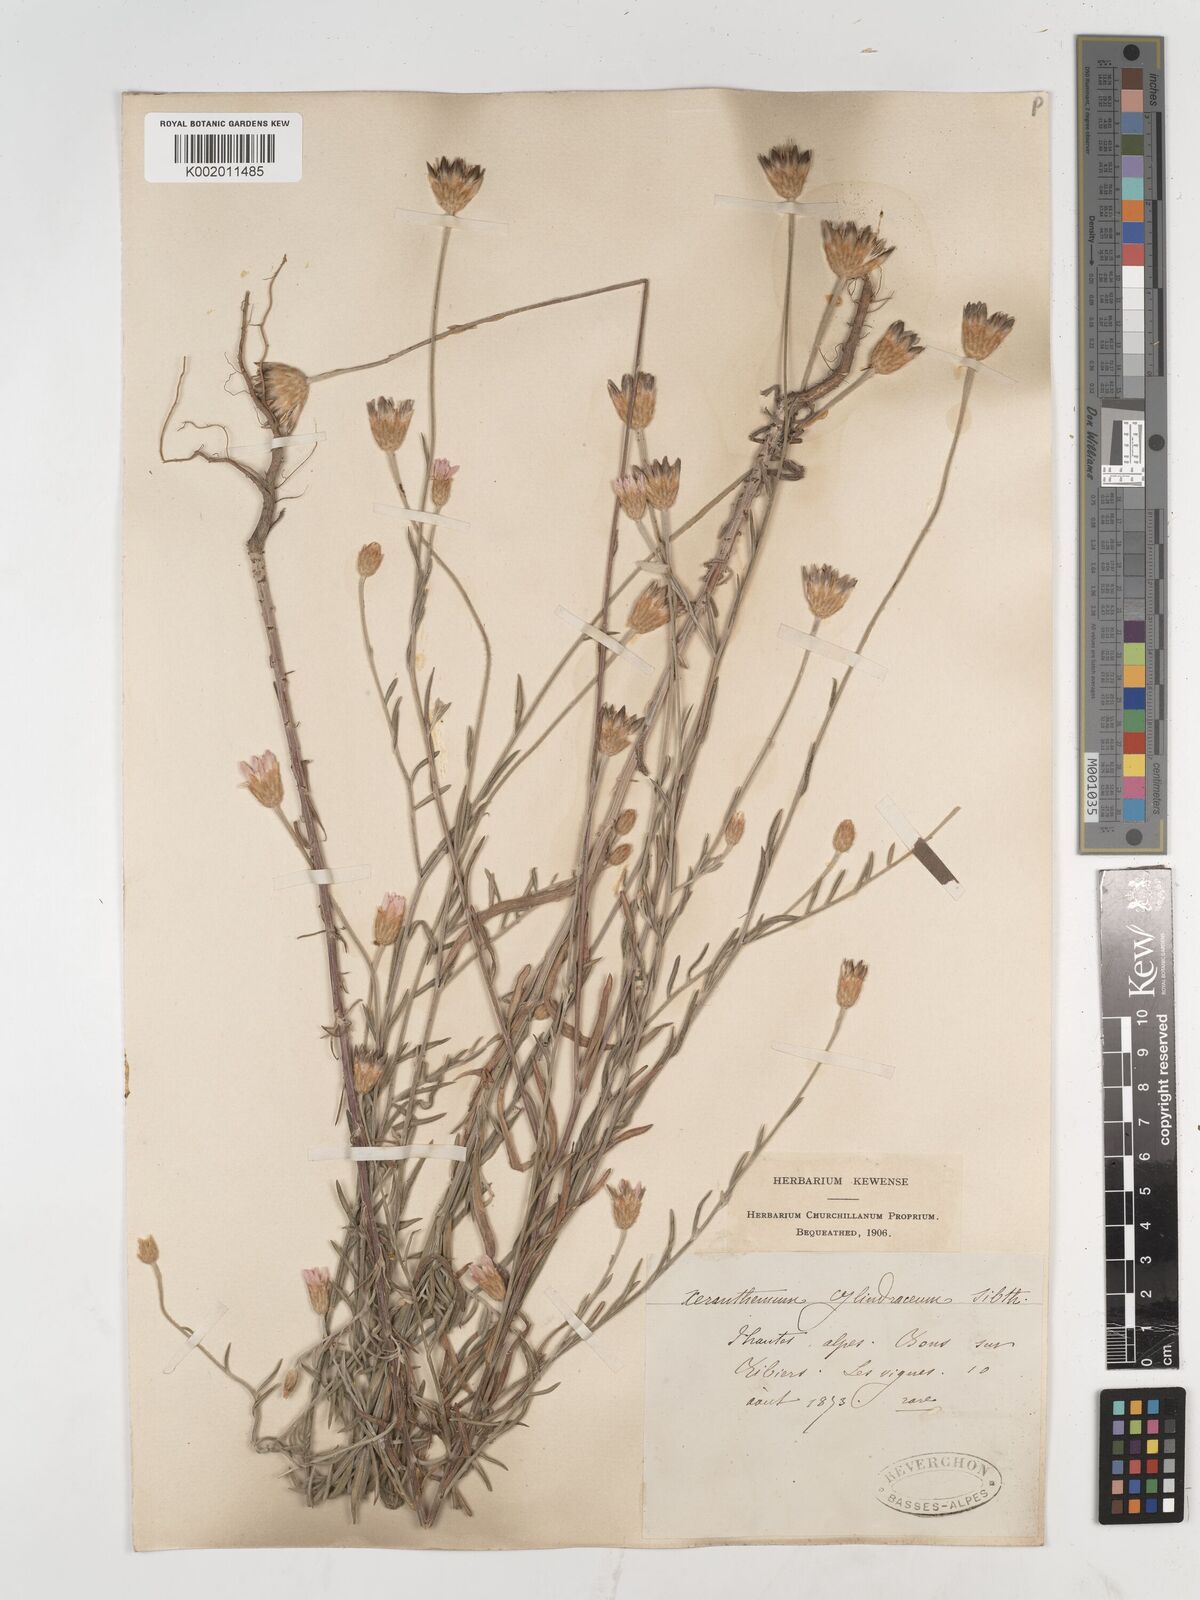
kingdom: Plantae
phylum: Tracheophyta
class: Magnoliopsida
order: Asterales
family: Asteraceae
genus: Xeranthemum
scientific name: Xeranthemum cylindraceum
